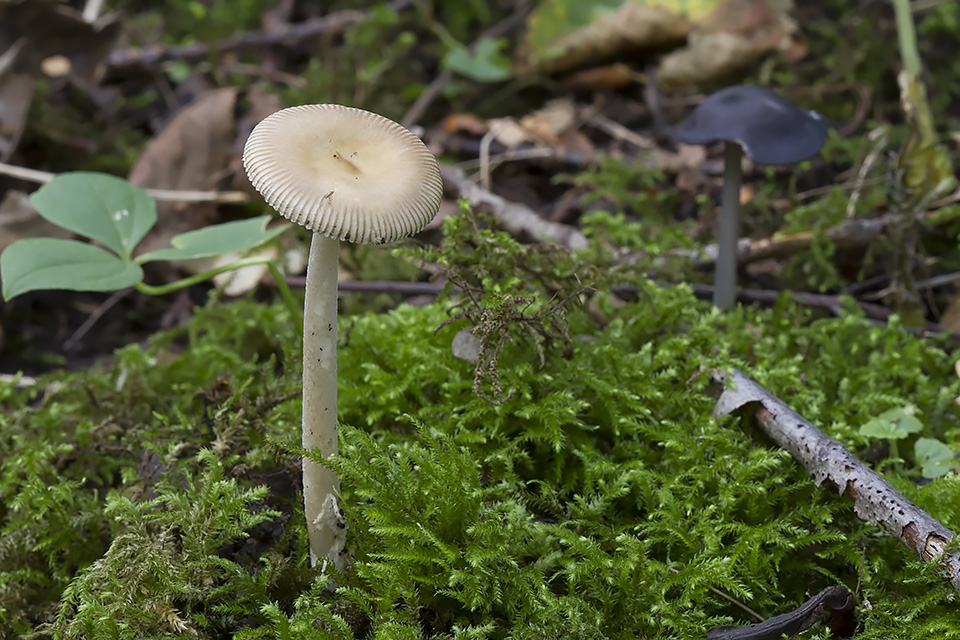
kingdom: Fungi
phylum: Basidiomycota
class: Agaricomycetes
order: Agaricales
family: Amanitaceae
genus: Amanita
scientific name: Amanita olivaceogrisea
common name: olivengrå kam-fluesvamp
